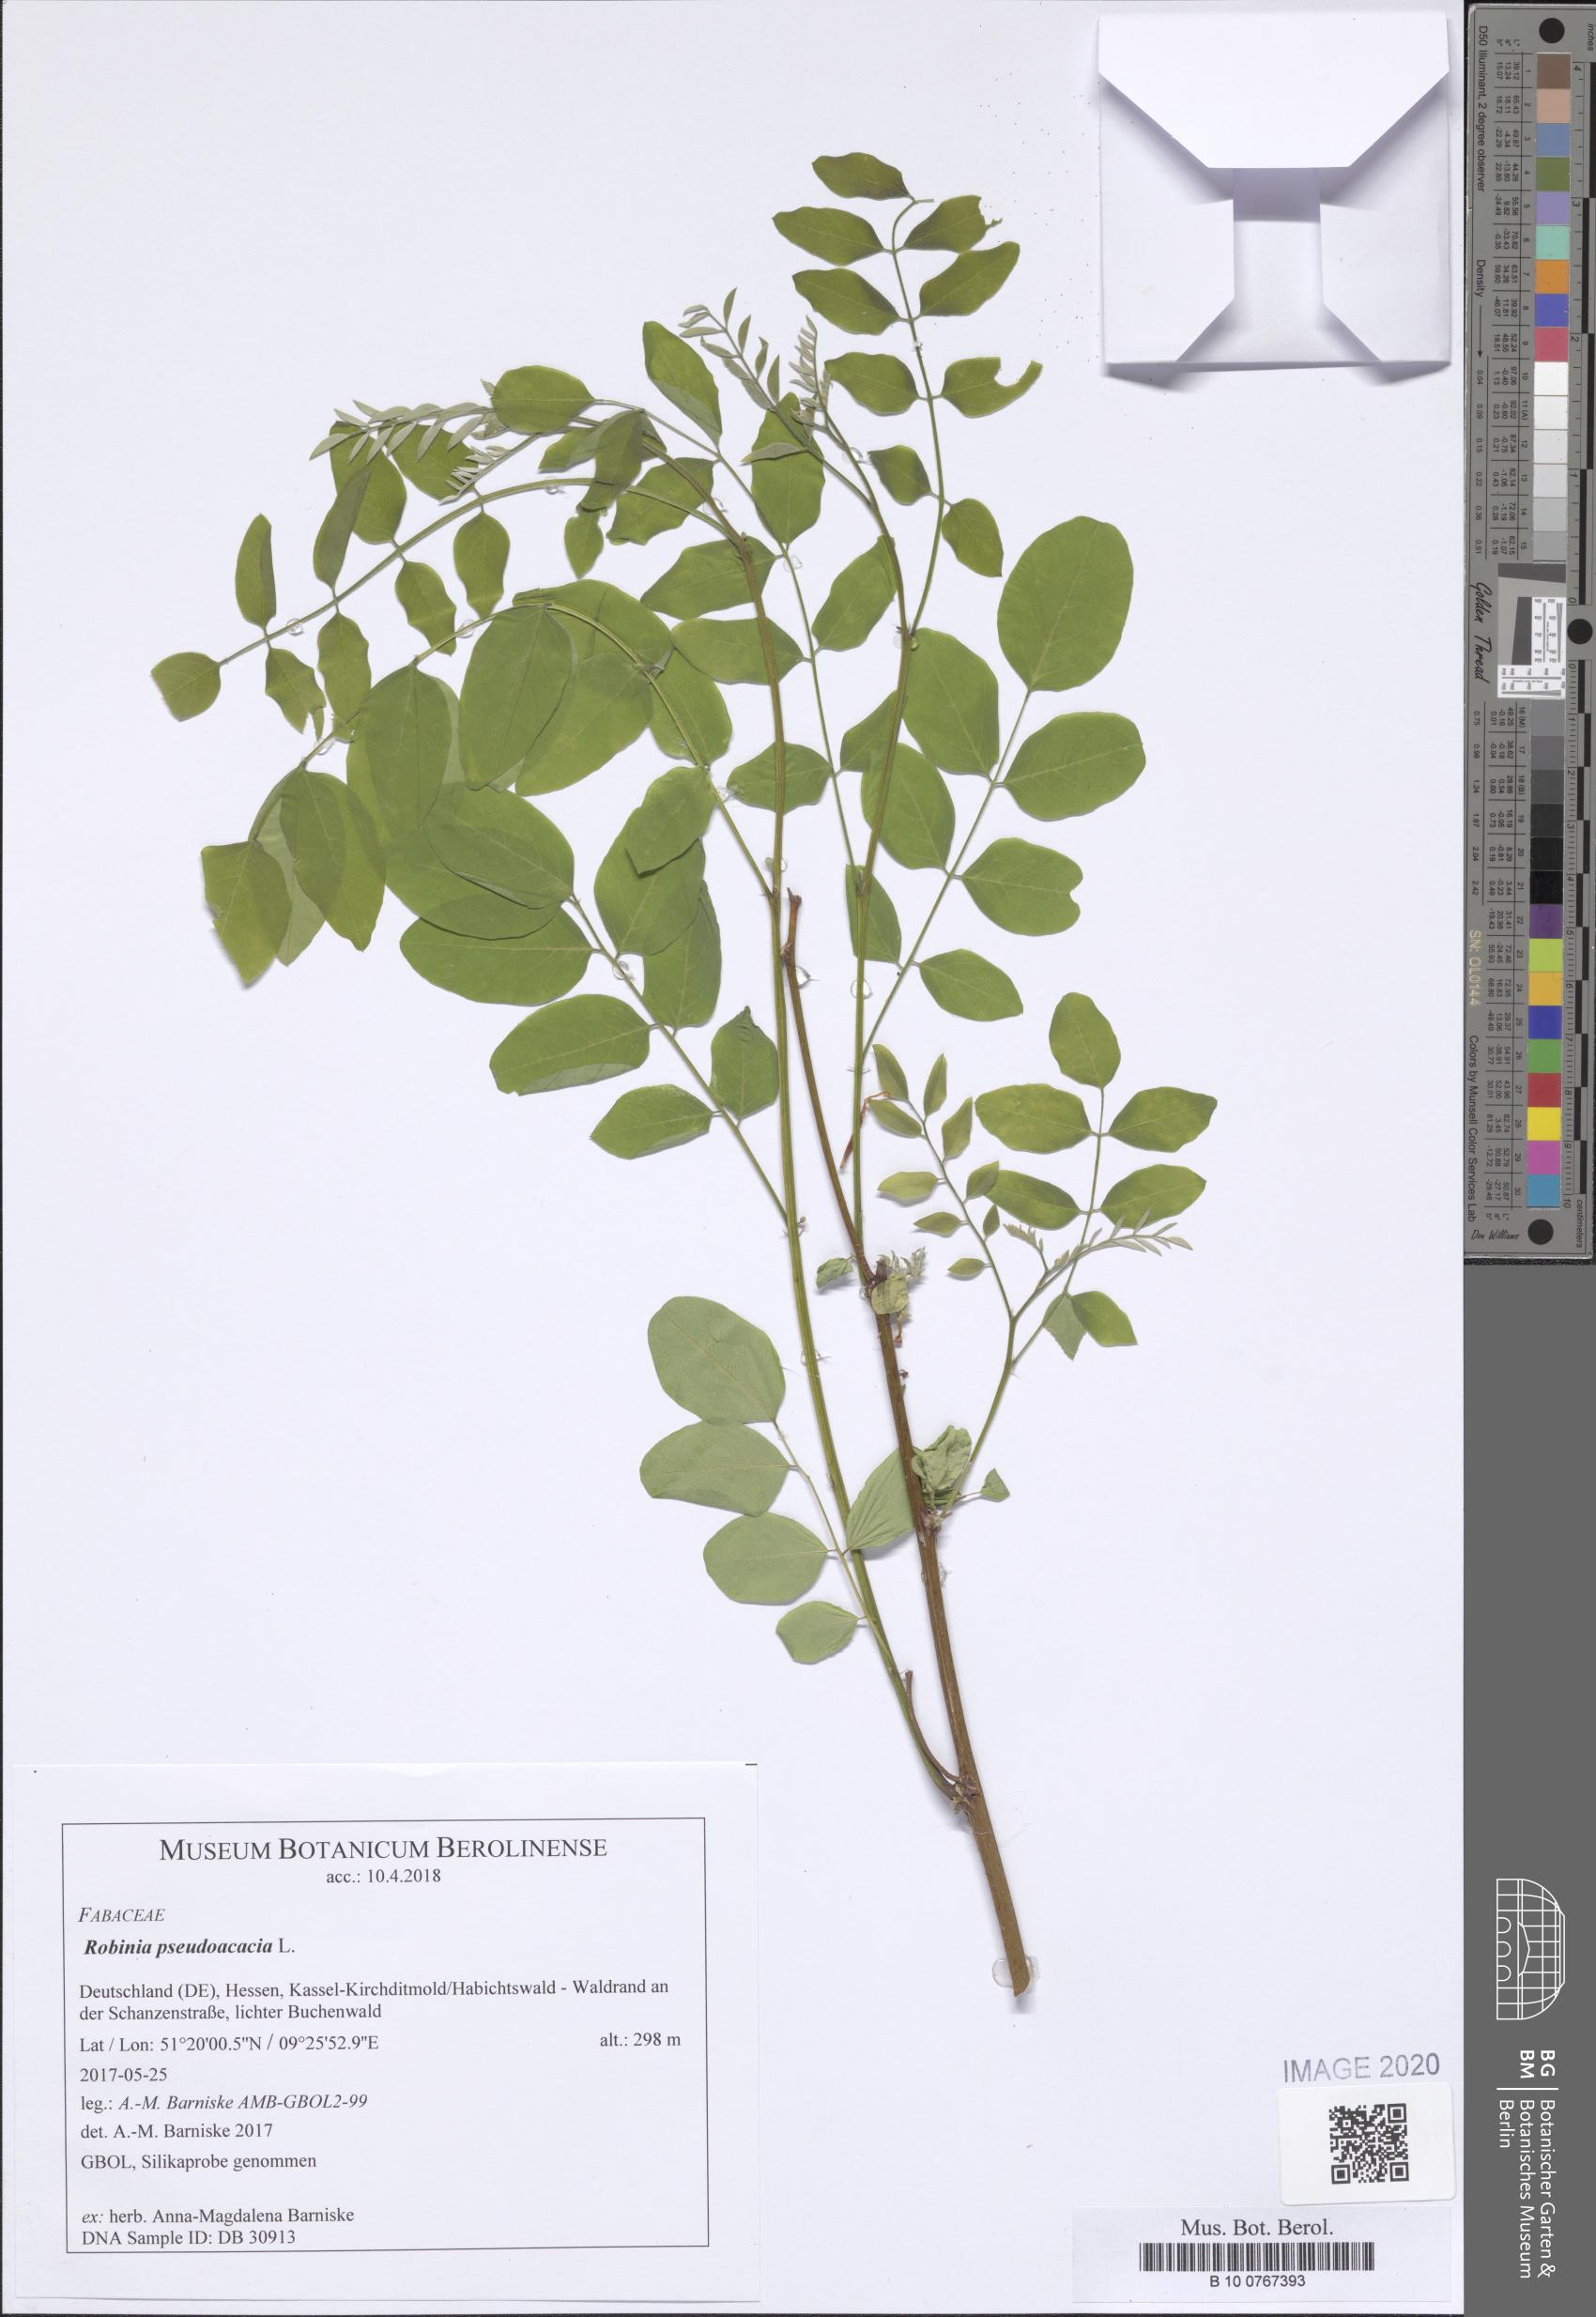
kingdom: Plantae
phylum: Tracheophyta
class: Magnoliopsida
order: Fabales
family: Fabaceae
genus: Robinia
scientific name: Robinia pseudoacacia
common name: Black locust
